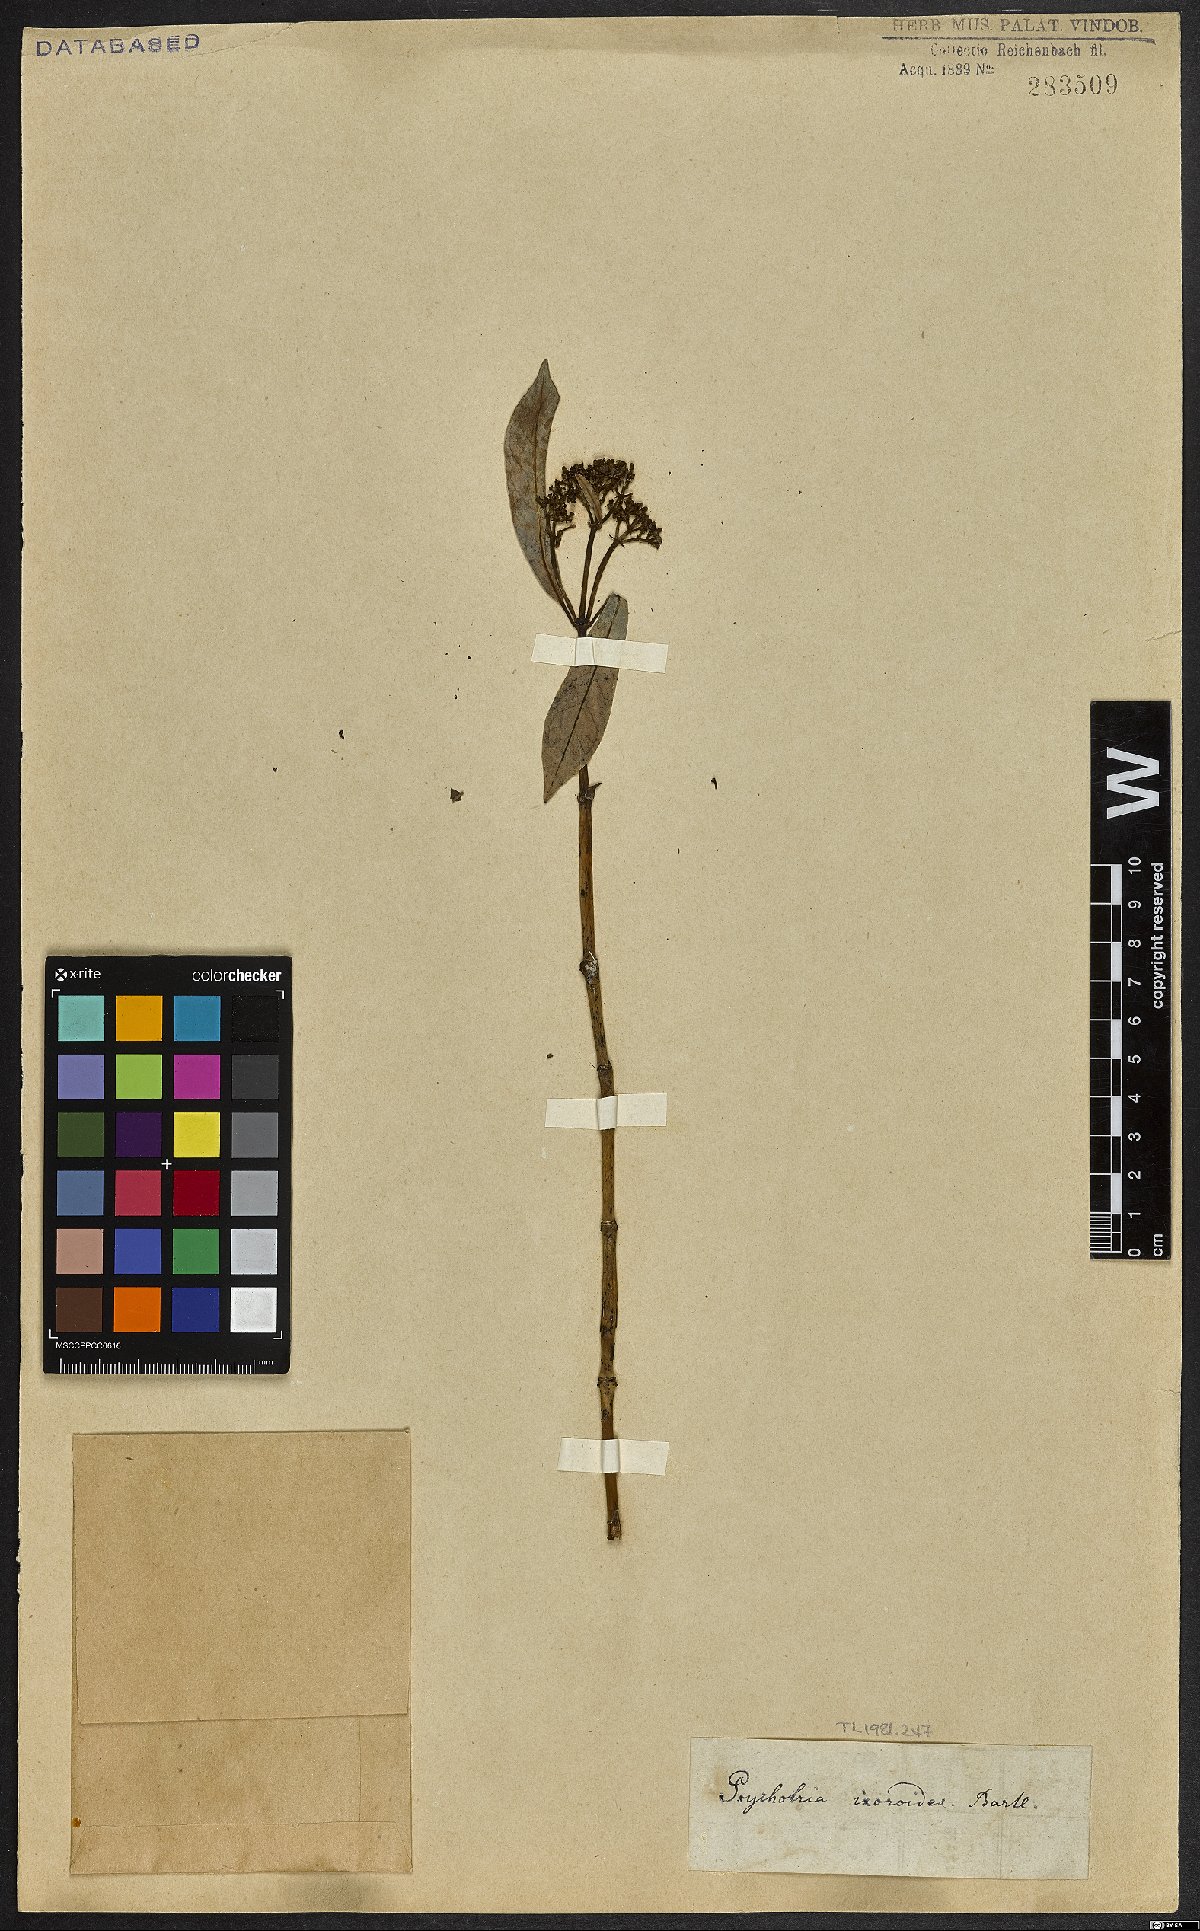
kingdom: Plantae
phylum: Tracheophyta
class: Magnoliopsida
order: Gentianales
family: Rubiaceae
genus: Psychotria
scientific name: Psychotria ixoroides
